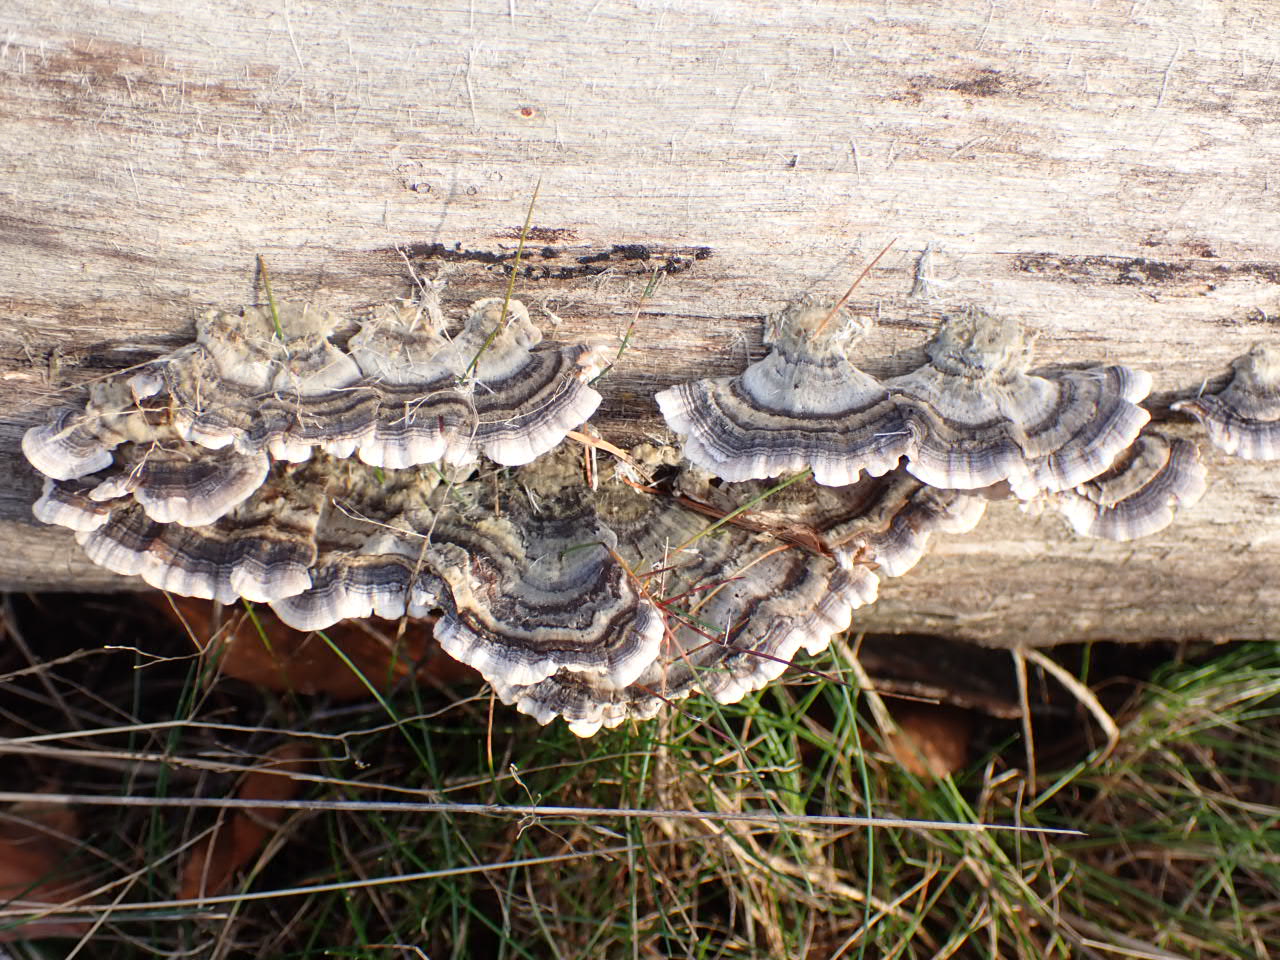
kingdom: Fungi
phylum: Basidiomycota
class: Agaricomycetes
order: Polyporales
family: Polyporaceae
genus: Trametes
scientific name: Trametes versicolor
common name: broget læderporesvamp
